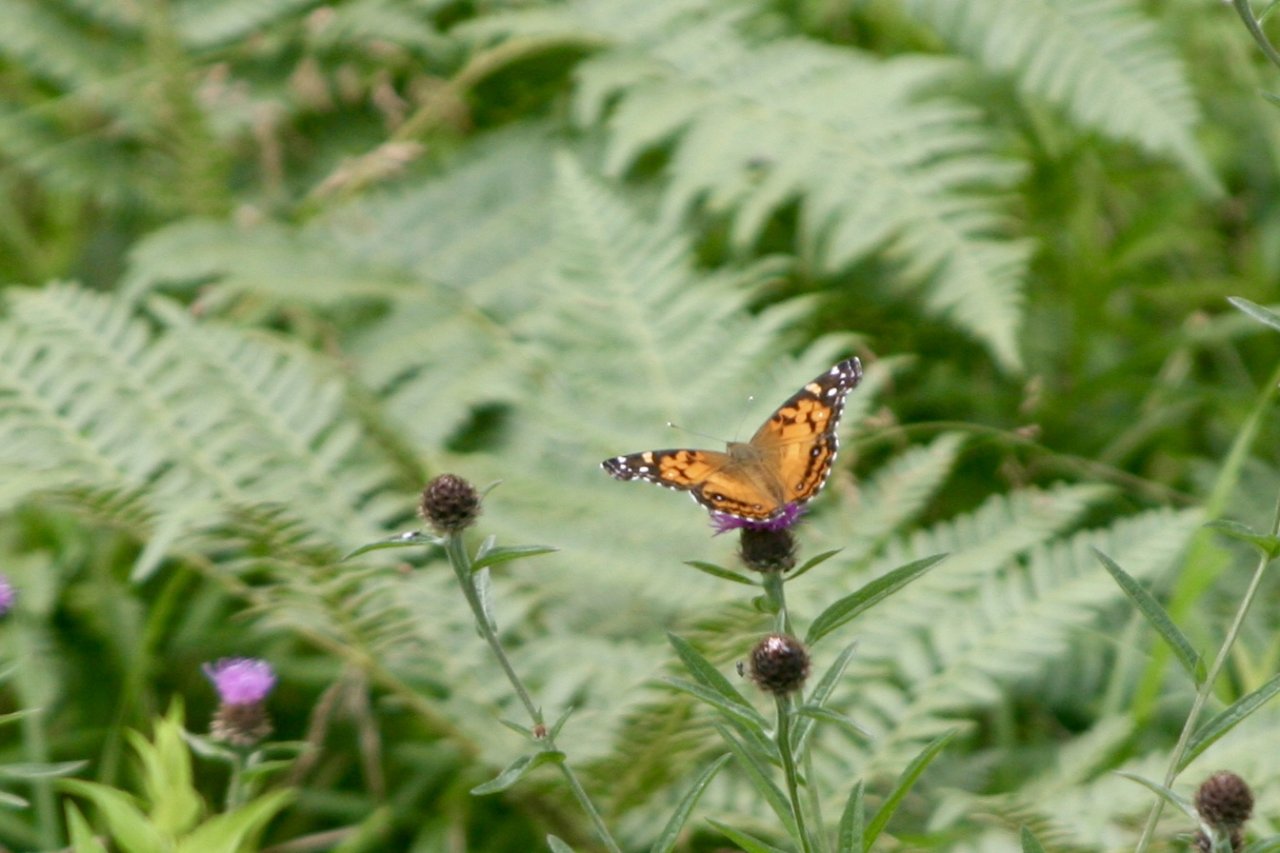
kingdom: Animalia
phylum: Arthropoda
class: Insecta
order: Lepidoptera
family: Nymphalidae
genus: Vanessa
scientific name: Vanessa virginiensis
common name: American Lady
